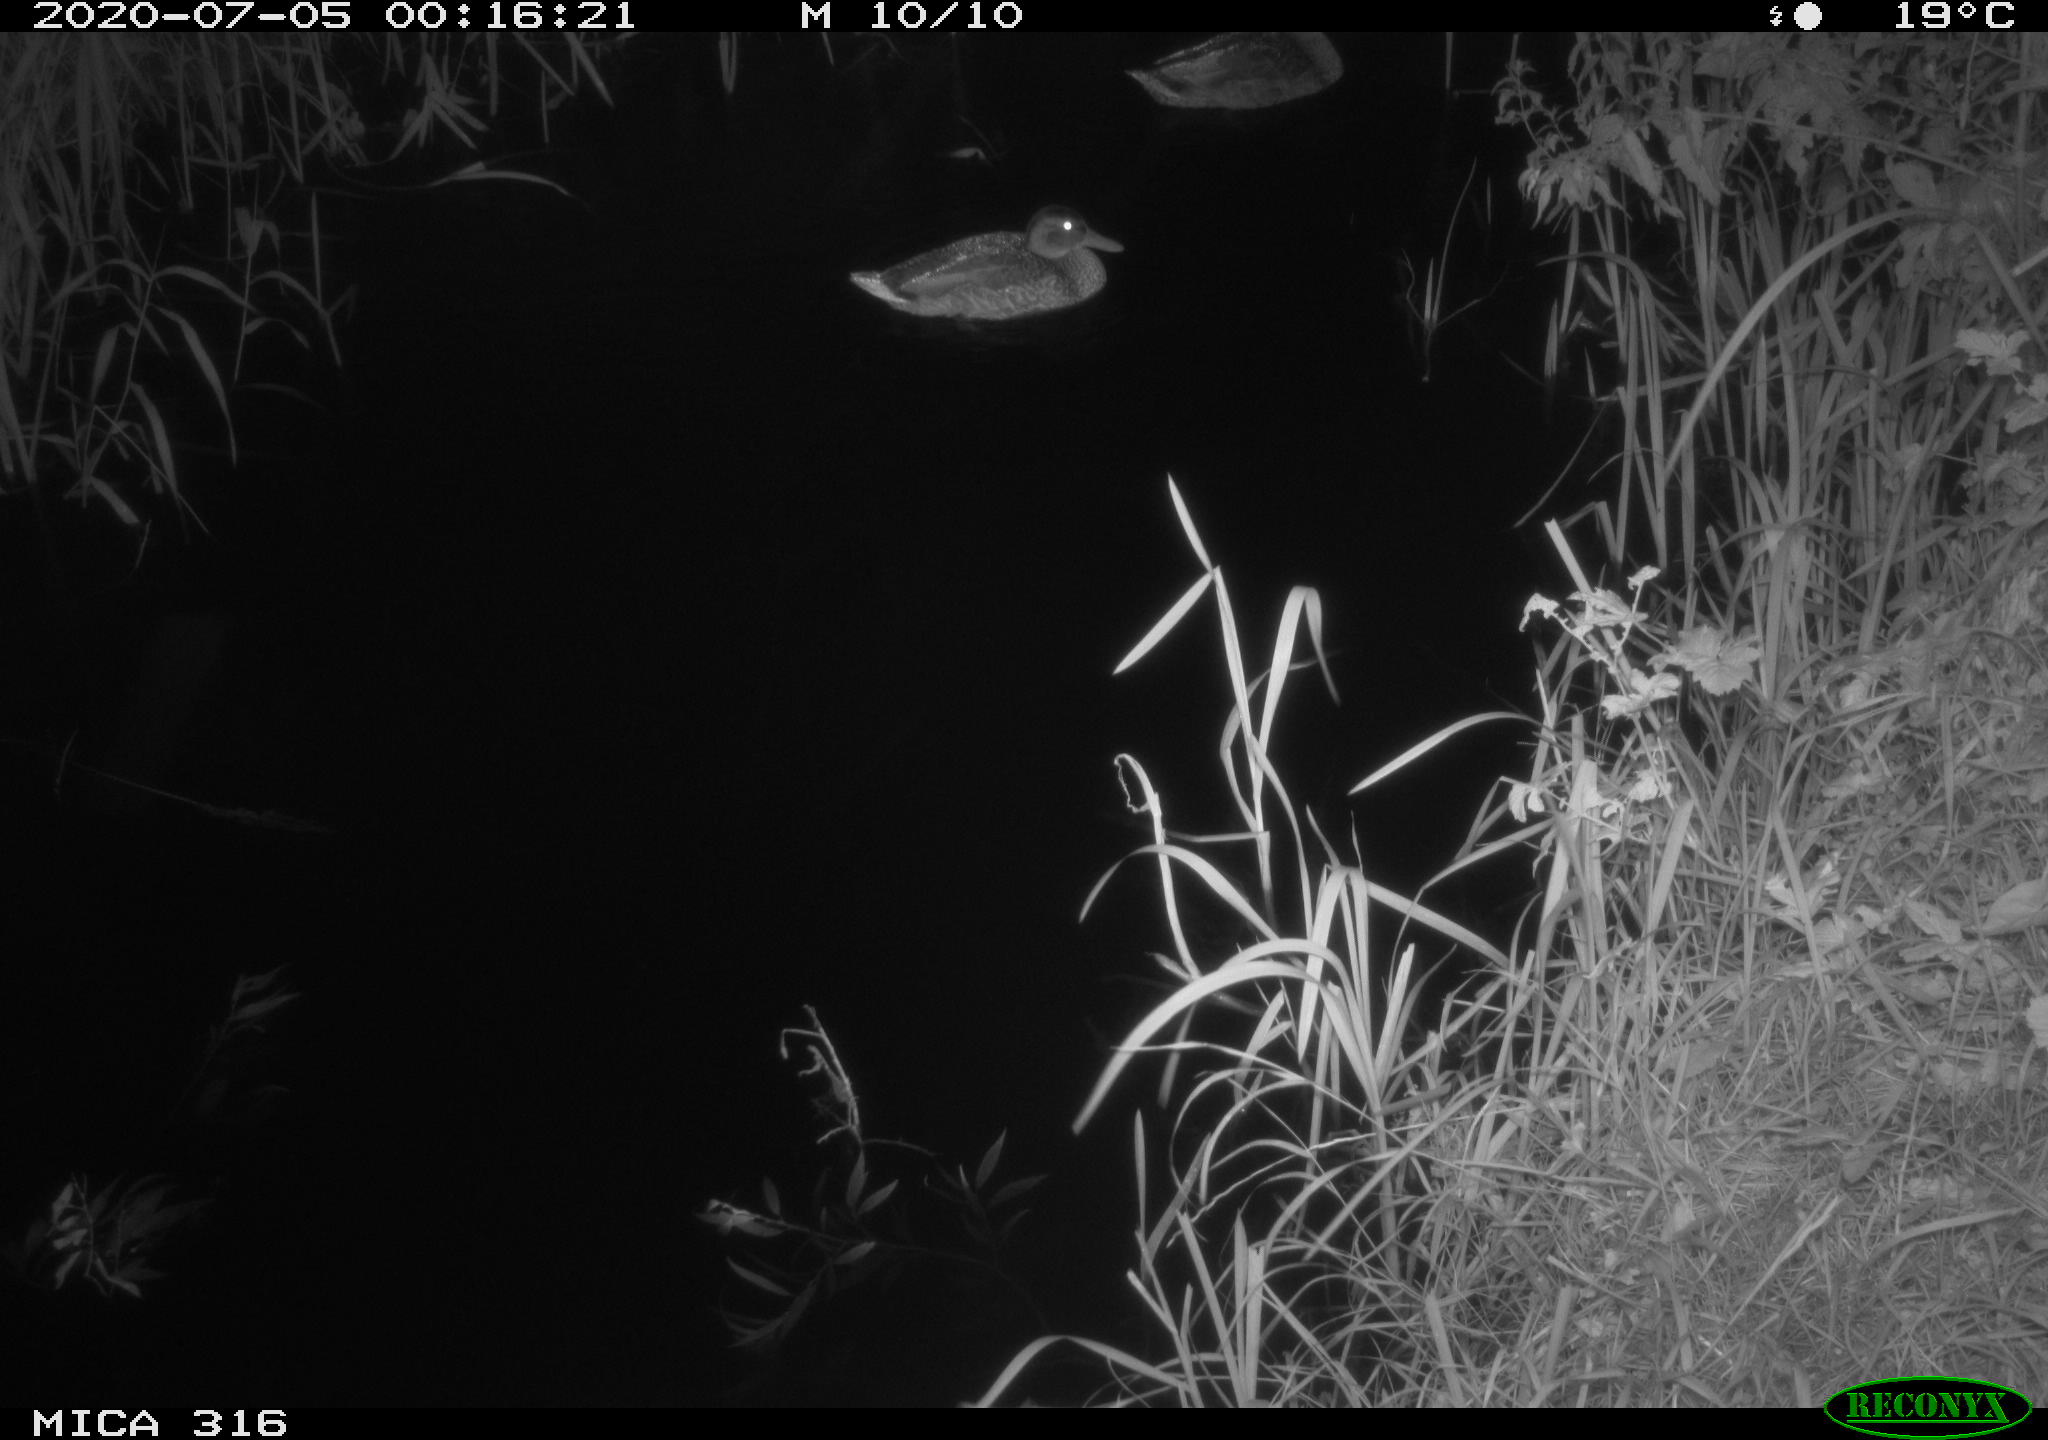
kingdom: Animalia
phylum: Chordata
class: Aves
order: Anseriformes
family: Anatidae
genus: Anas
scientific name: Anas platyrhynchos
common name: Mallard
